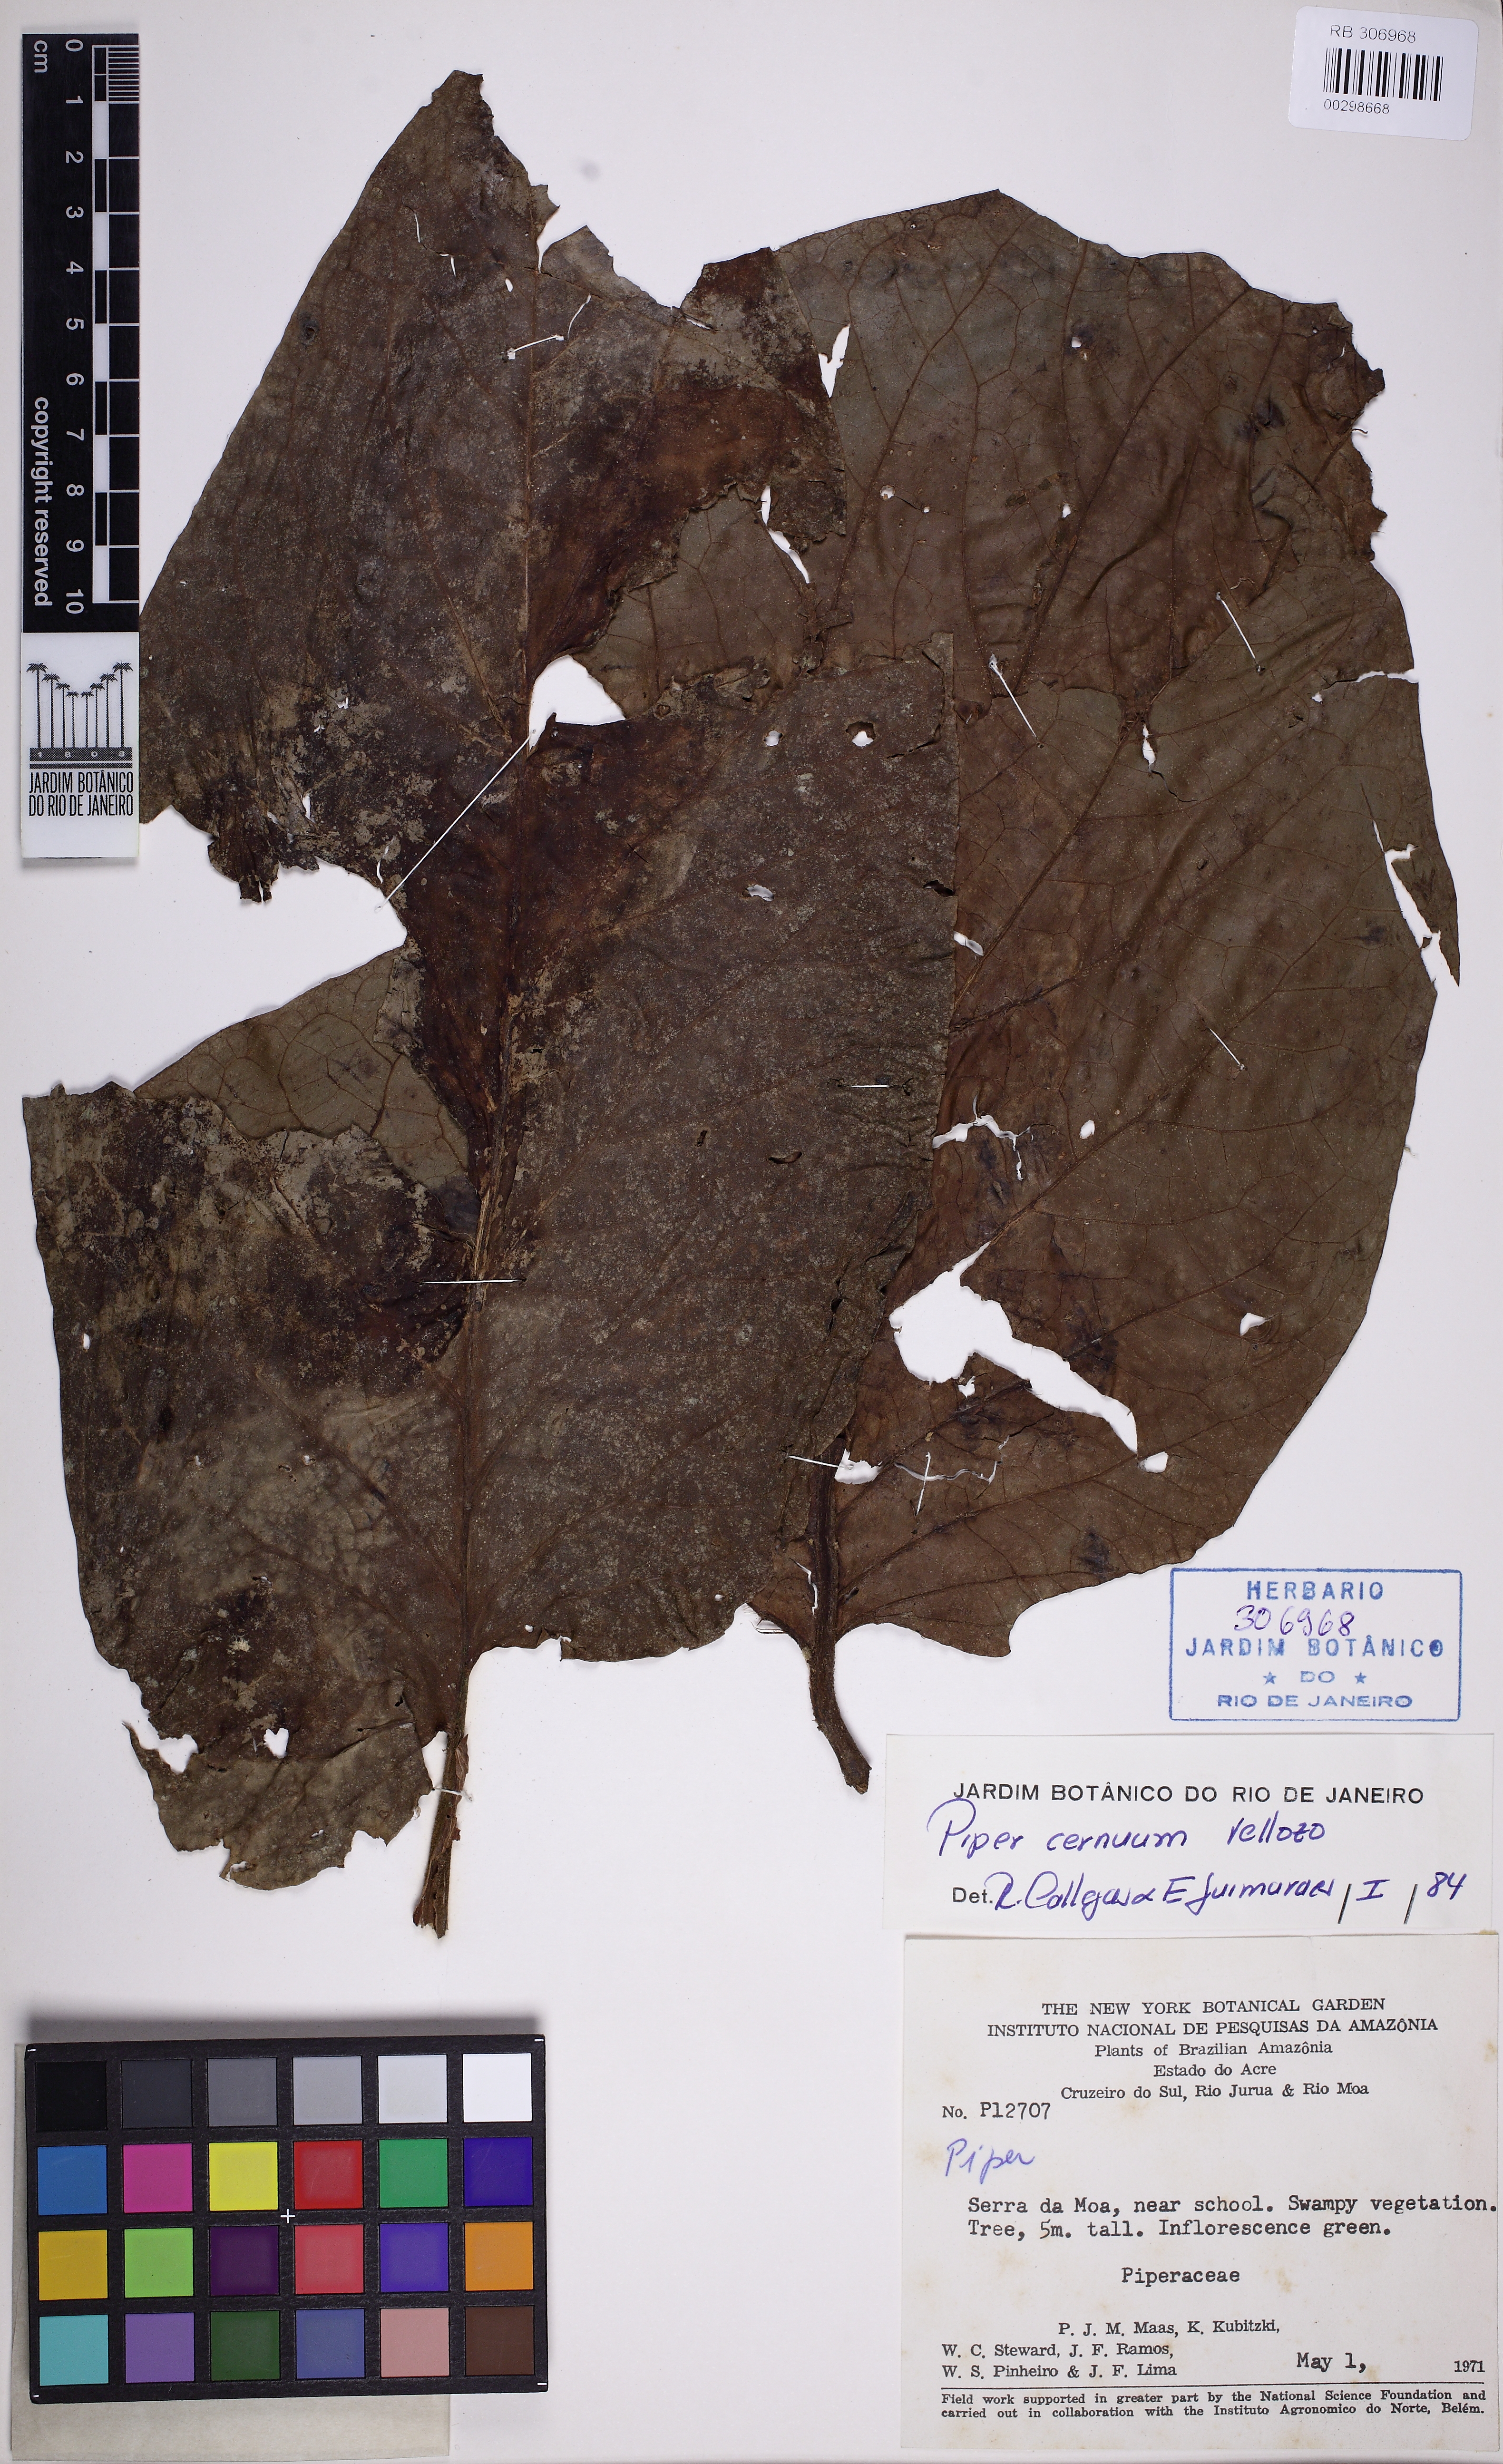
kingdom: Plantae
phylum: Tracheophyta
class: Magnoliopsida
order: Piperales
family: Piperaceae
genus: Piper
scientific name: Piper cernuum
